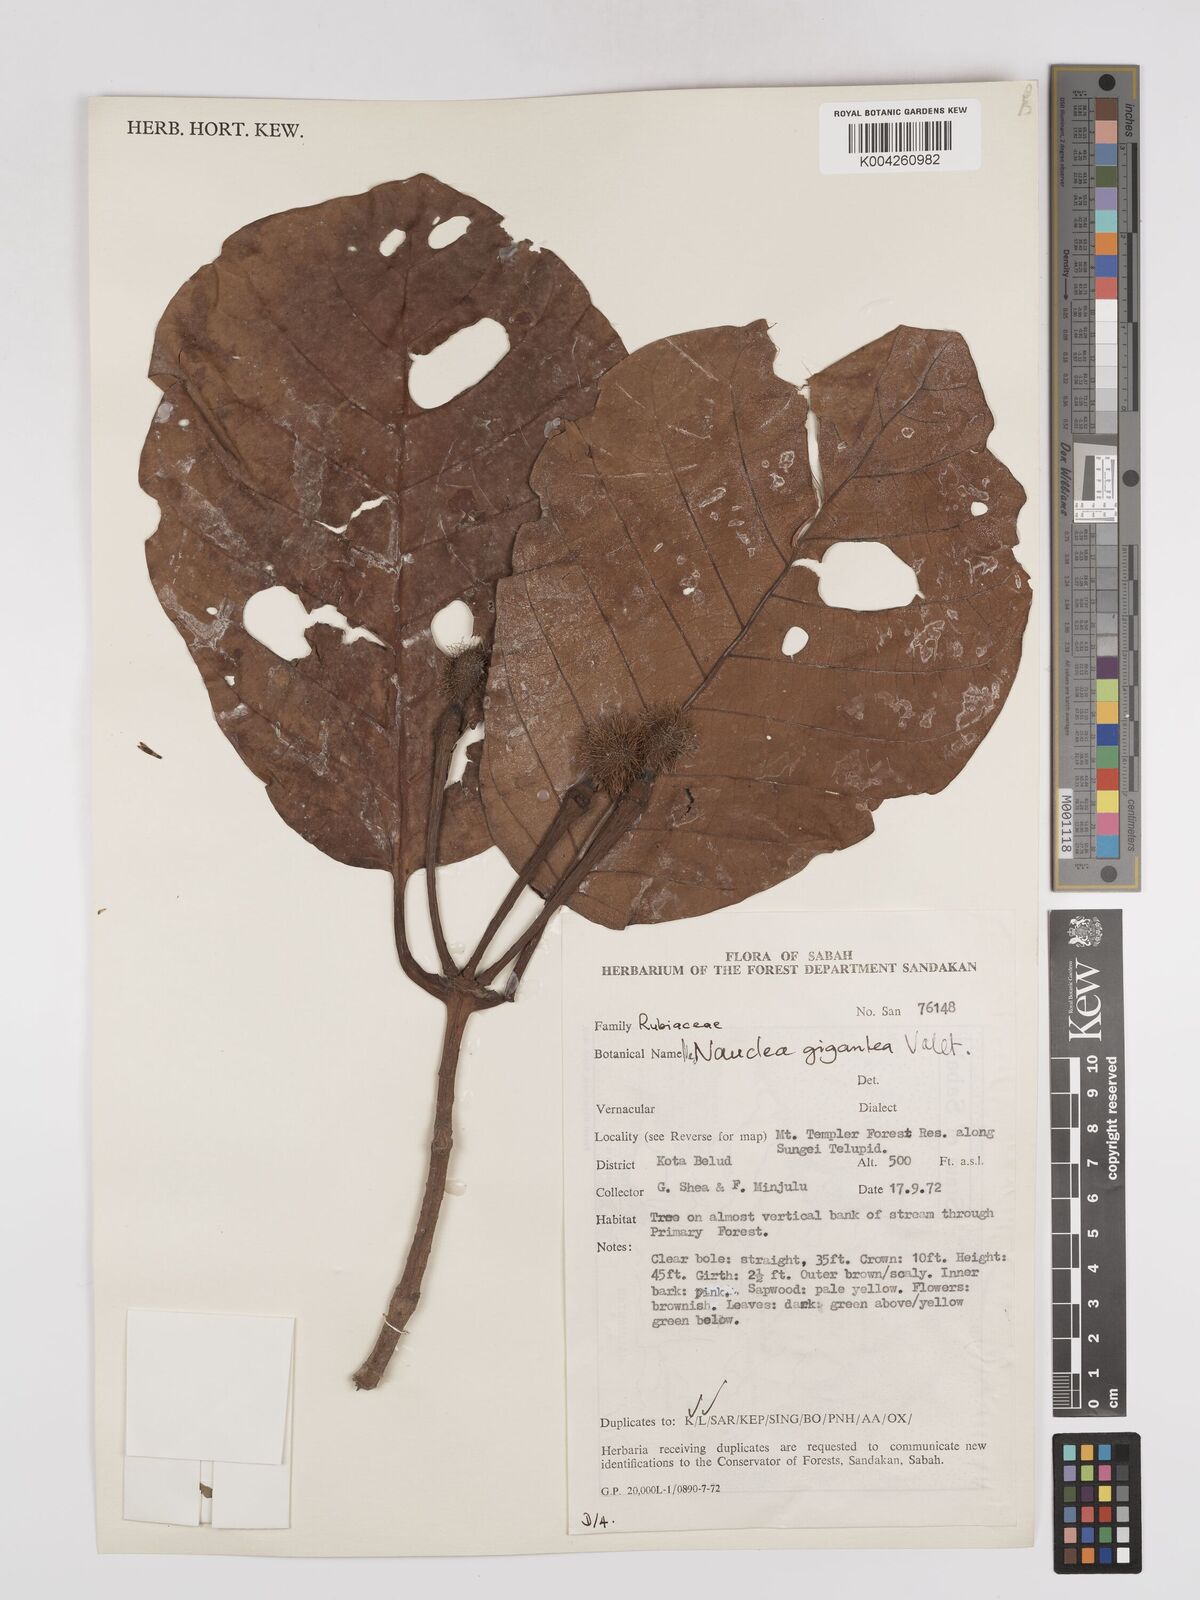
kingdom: Plantae
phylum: Tracheophyta
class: Magnoliopsida
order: Gentianales
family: Rubiaceae
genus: Neonauclea
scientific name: Neonauclea gigantea
